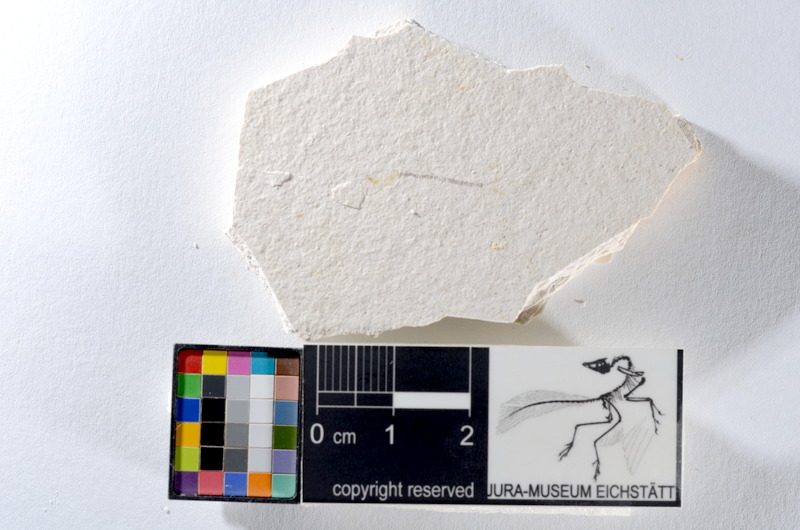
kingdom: Animalia
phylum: Chordata
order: Salmoniformes
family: Orthogonikleithridae
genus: Orthogonikleithrus
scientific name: Orthogonikleithrus hoelli
